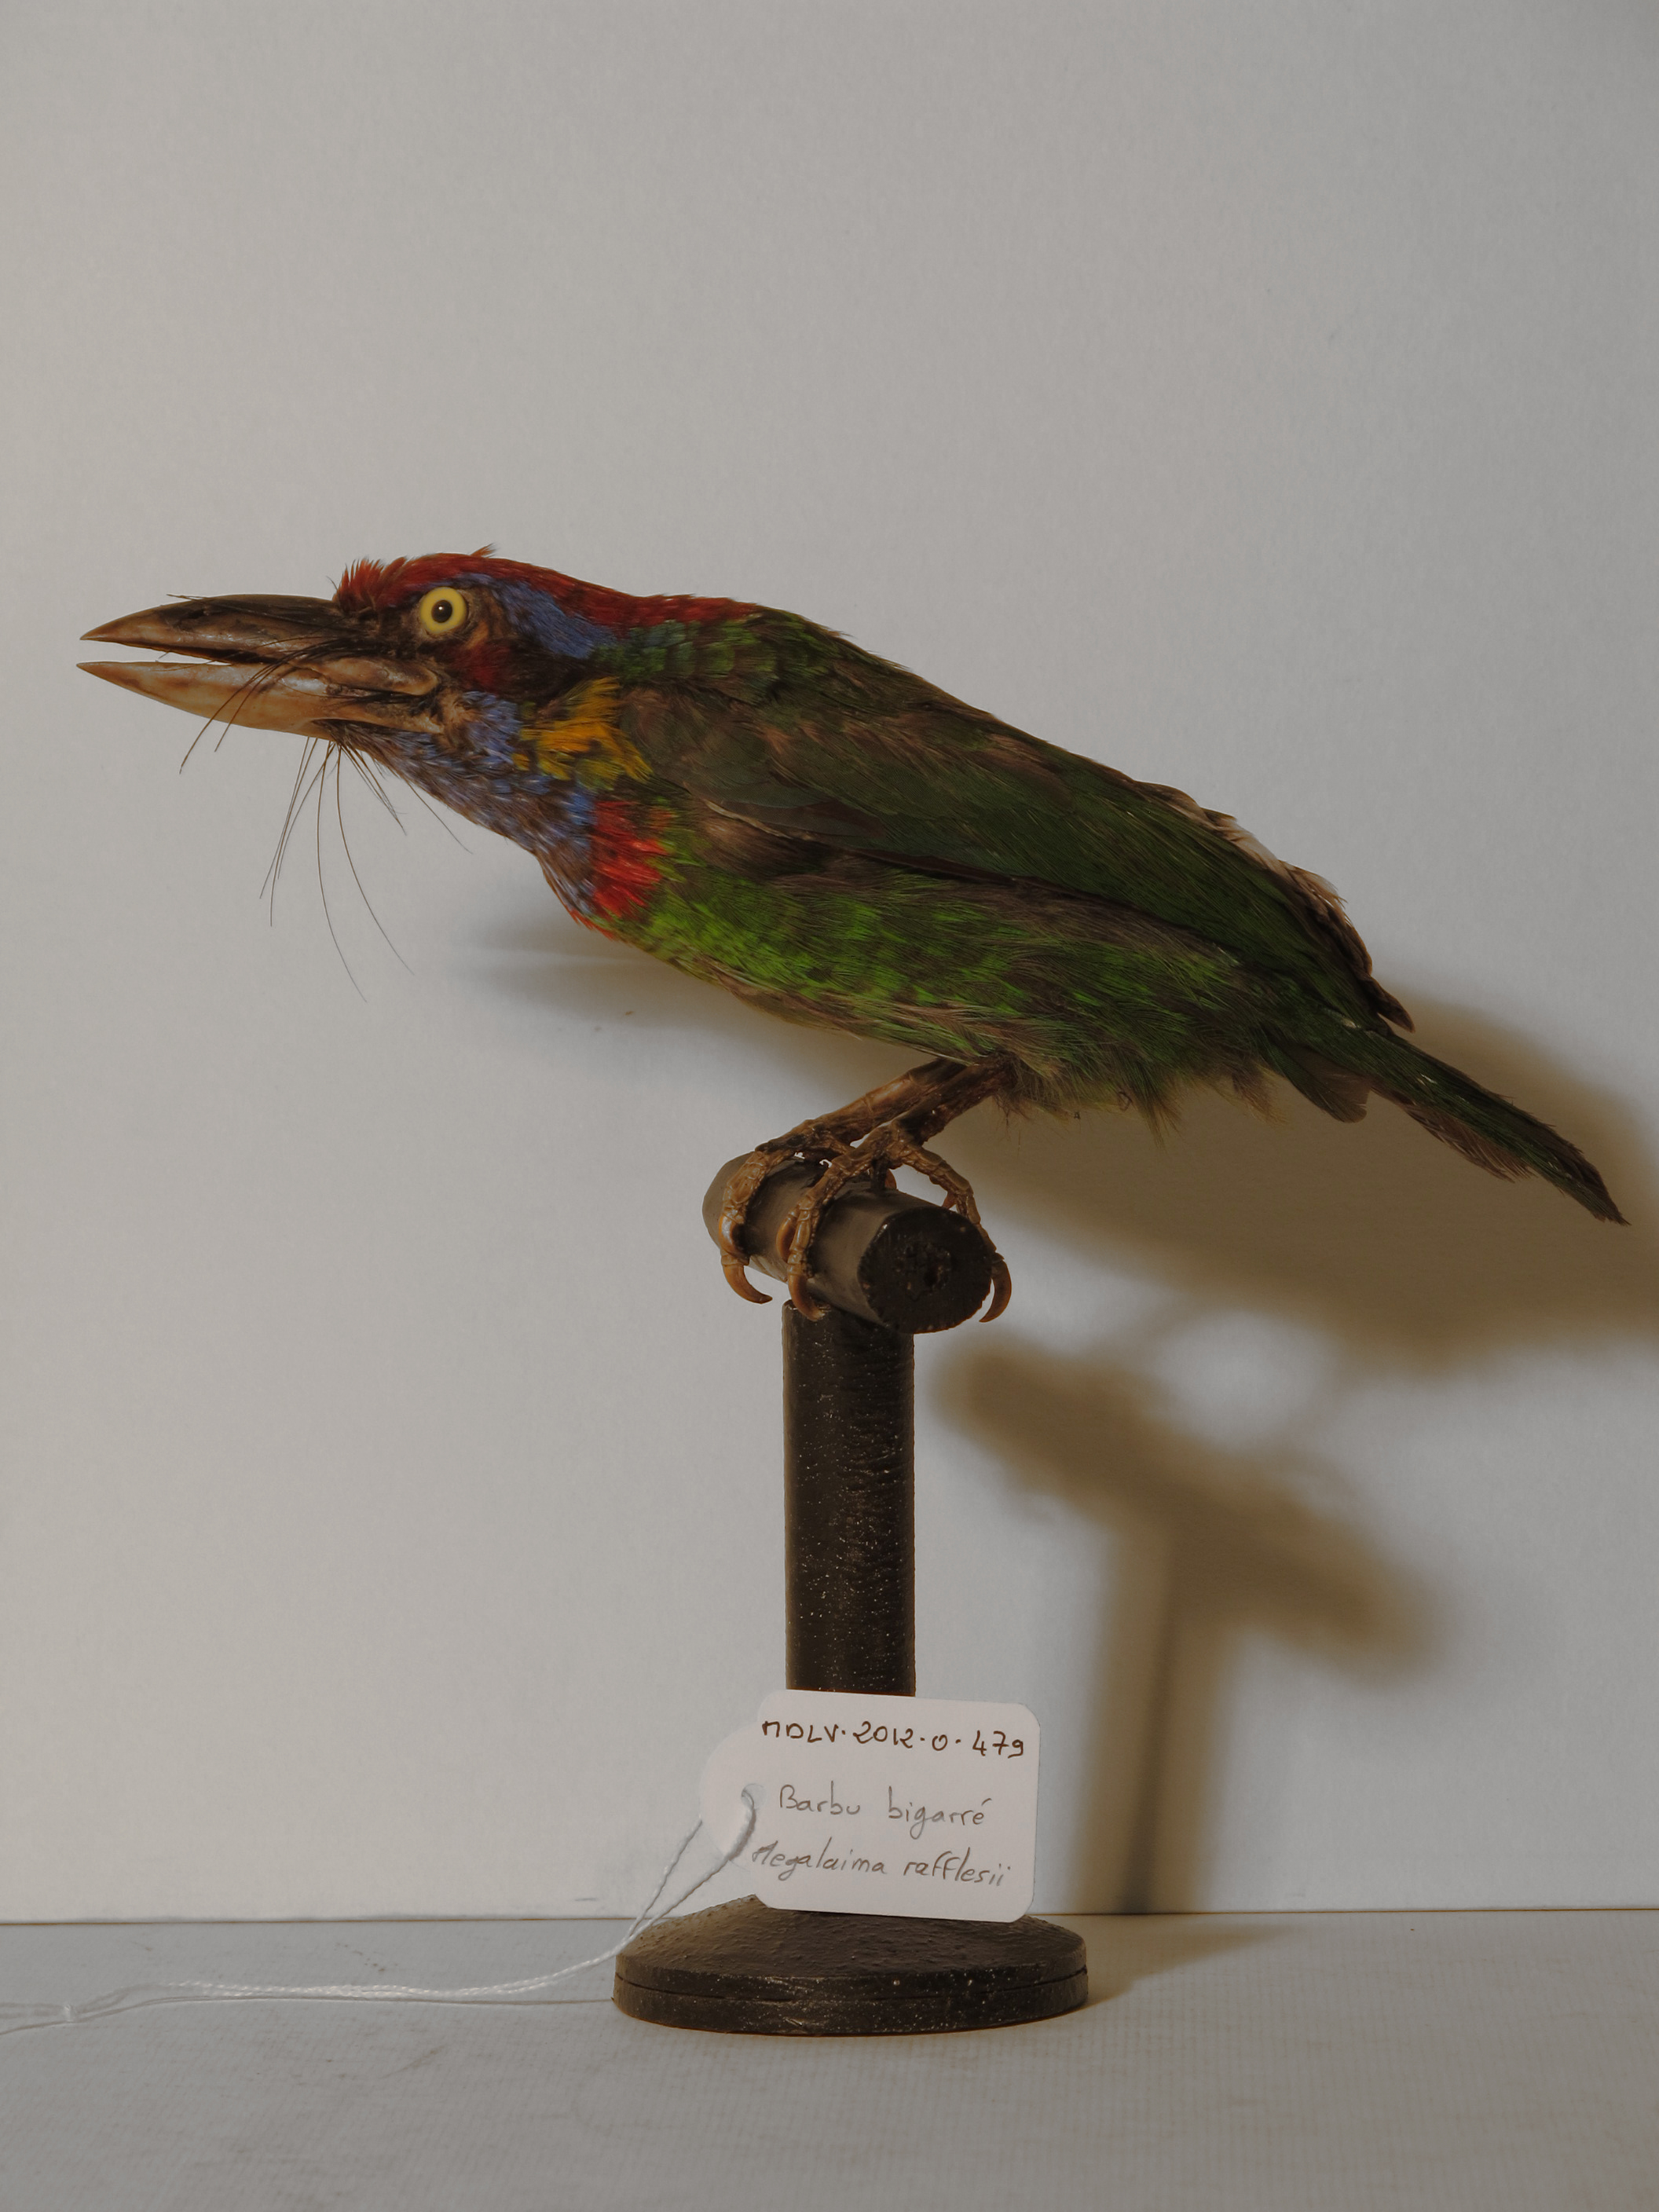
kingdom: Animalia
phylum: Chordata
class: Aves
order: Piciformes
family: Megalaimidae
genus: Psilopogon
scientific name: Psilopogon rafflesii
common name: Red-crowned Barbet
